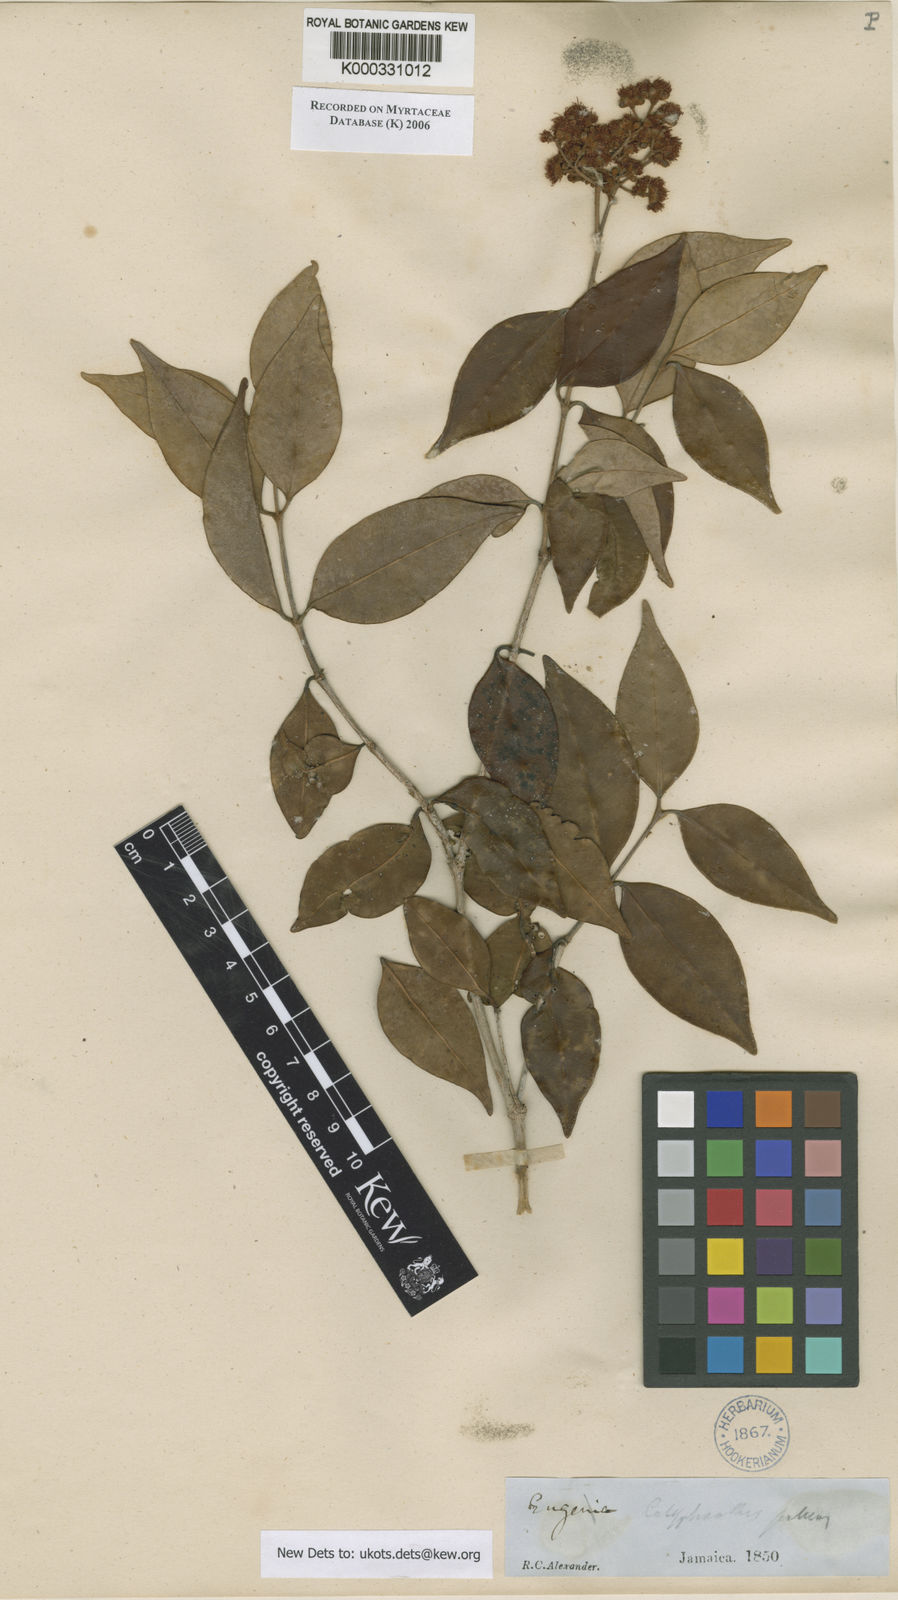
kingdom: Plantae
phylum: Tracheophyta
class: Magnoliopsida
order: Myrtales
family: Myrtaceae
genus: Myrcia
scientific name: Myrcia neopallens
